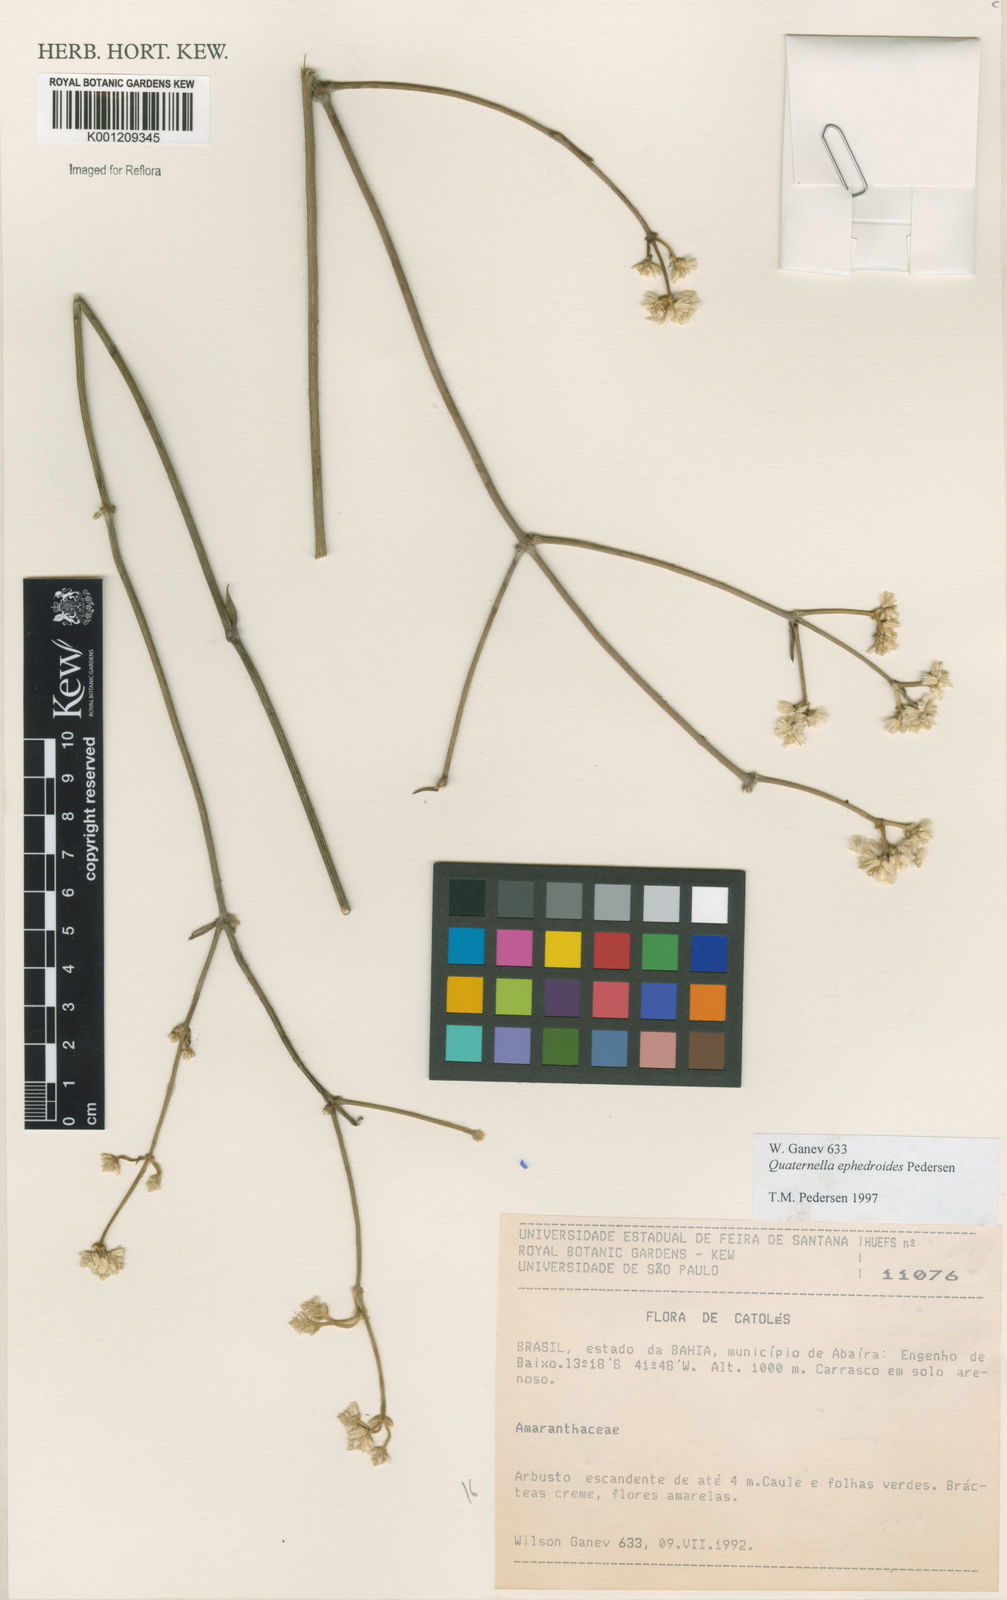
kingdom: Plantae
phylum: Tracheophyta
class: Magnoliopsida
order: Caryophyllales
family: Amaranthaceae
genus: Quaternella
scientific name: Quaternella ephedroides
